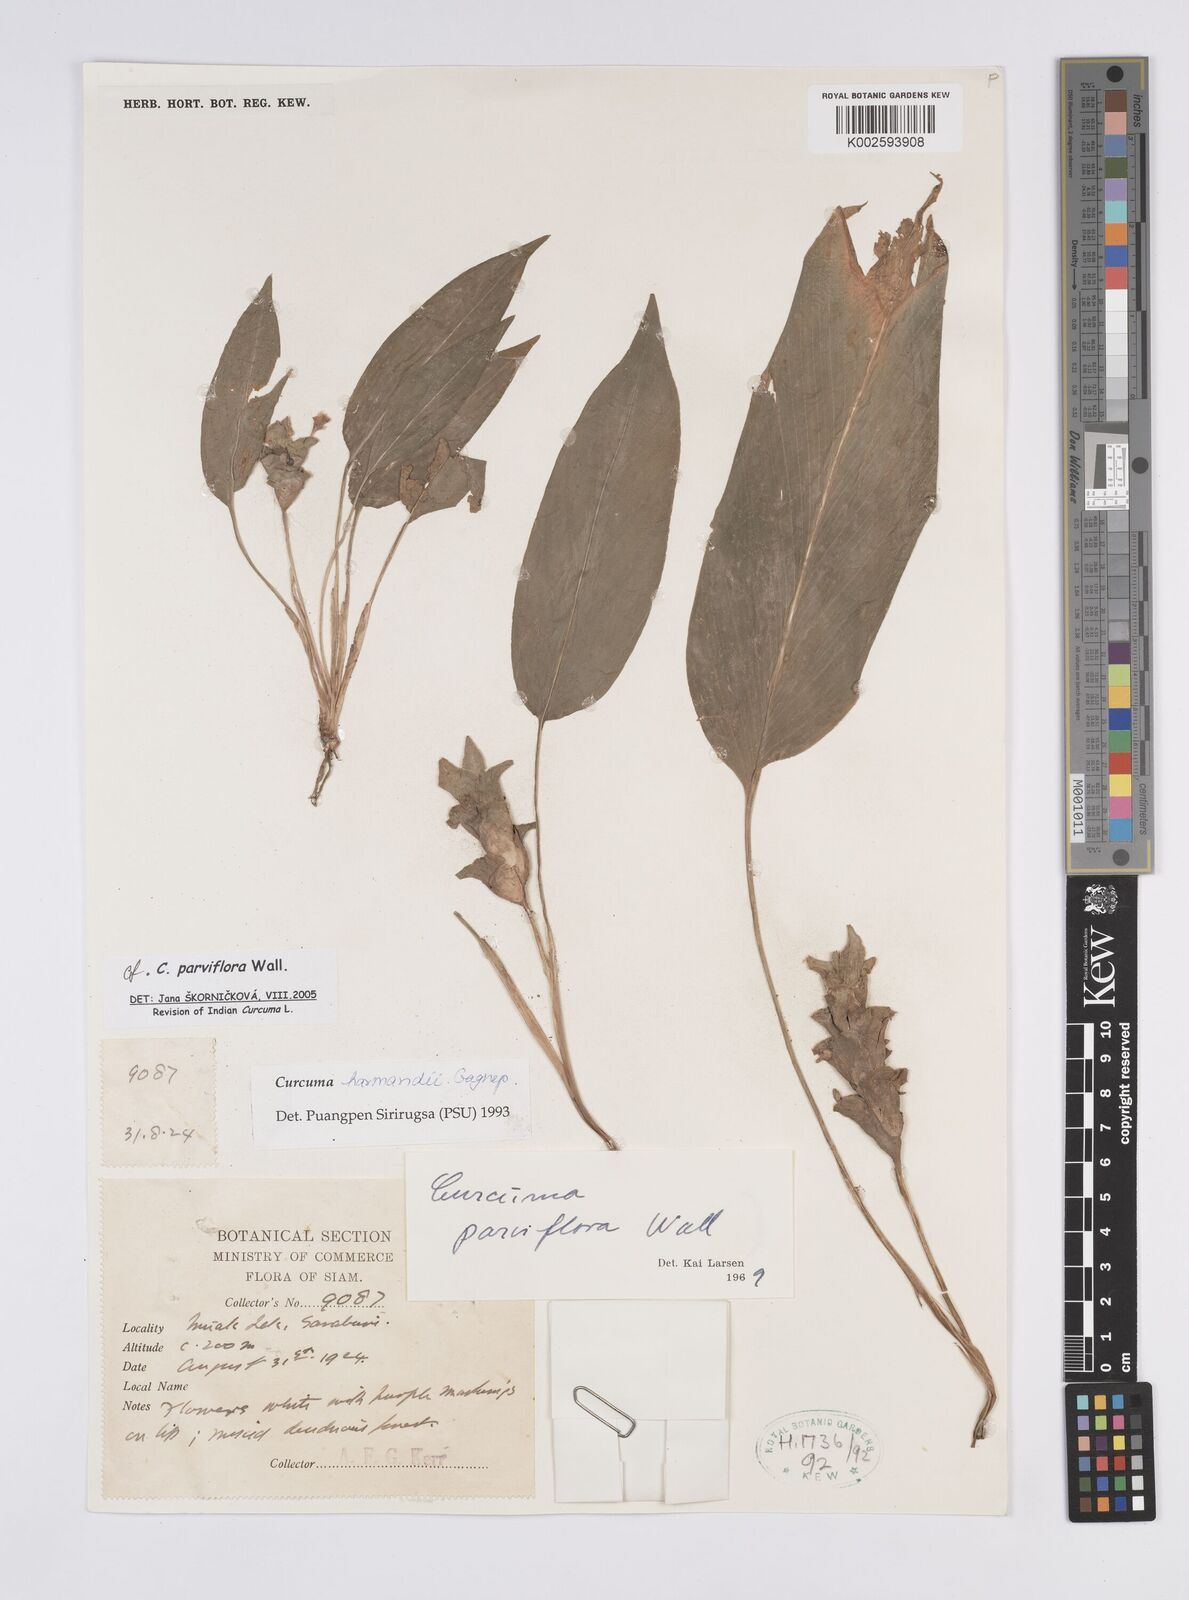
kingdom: Plantae
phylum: Tracheophyta
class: Liliopsida
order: Zingiberales
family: Zingiberaceae
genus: Curcuma
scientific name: Curcuma parviflora
